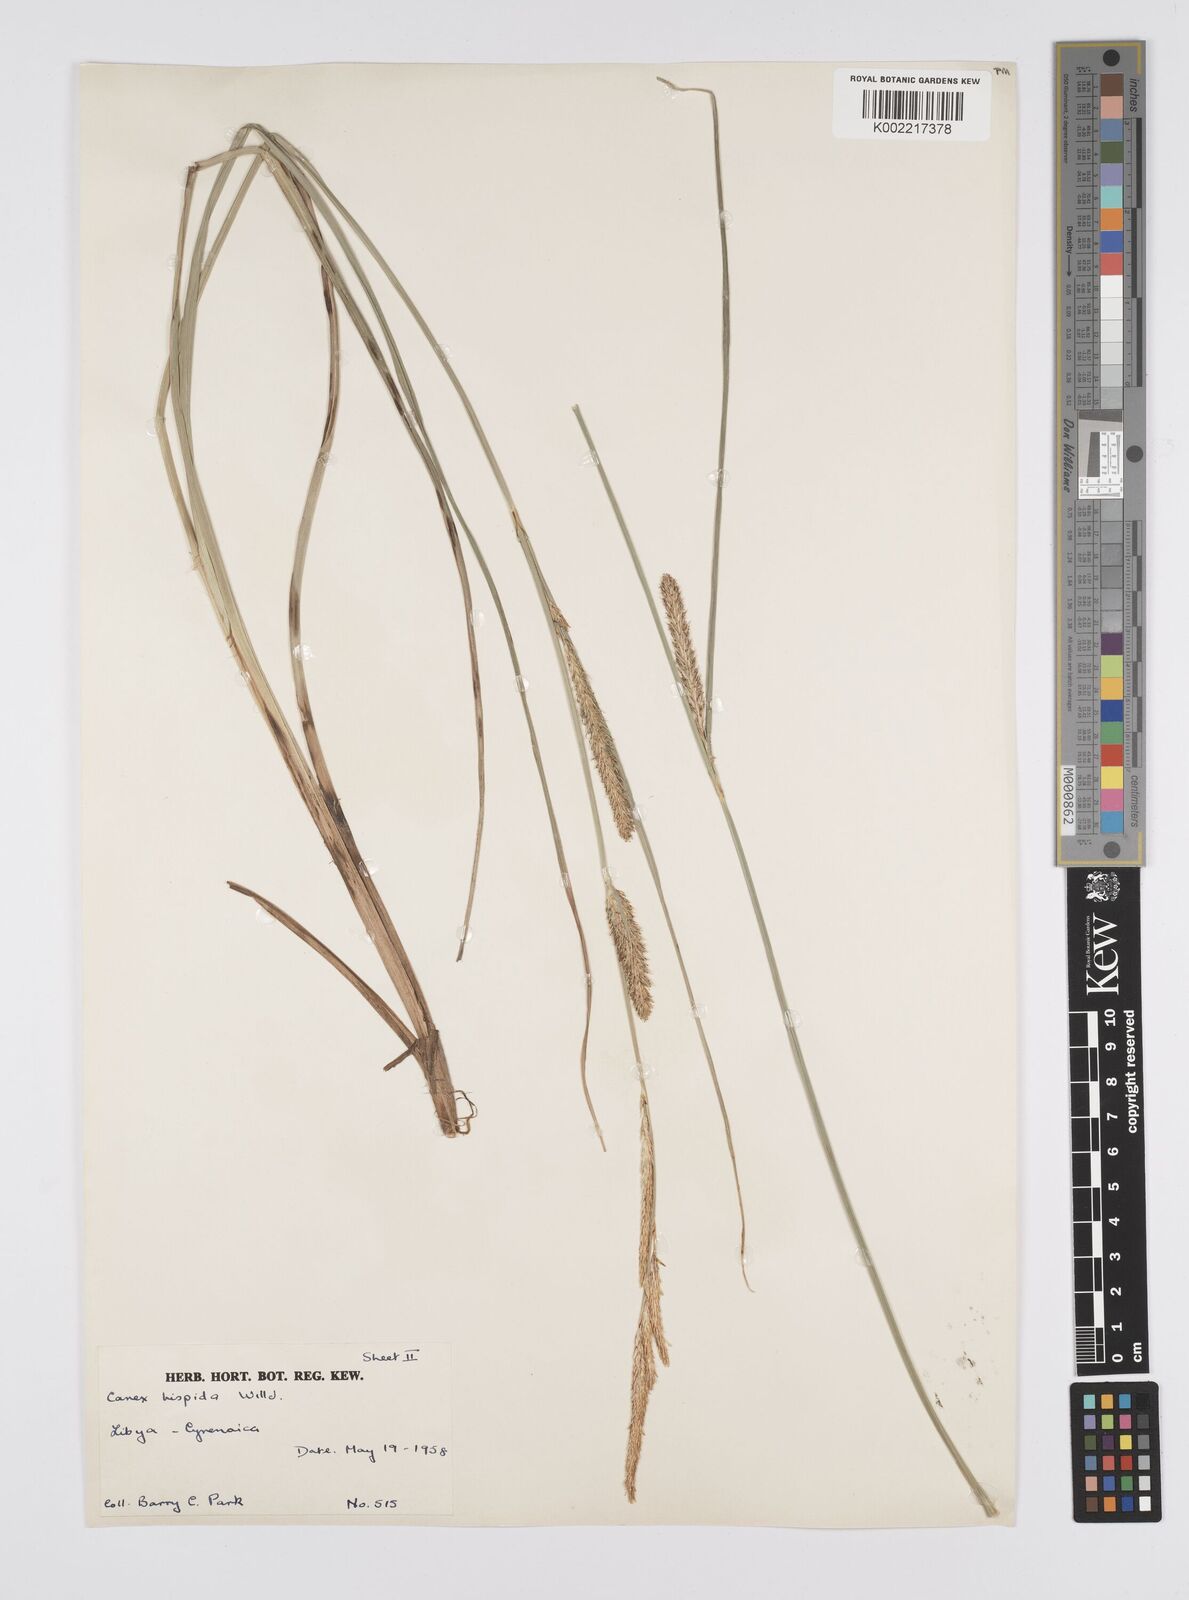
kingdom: Plantae
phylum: Tracheophyta
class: Liliopsida
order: Poales
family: Cyperaceae
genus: Carex
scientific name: Carex hispida
